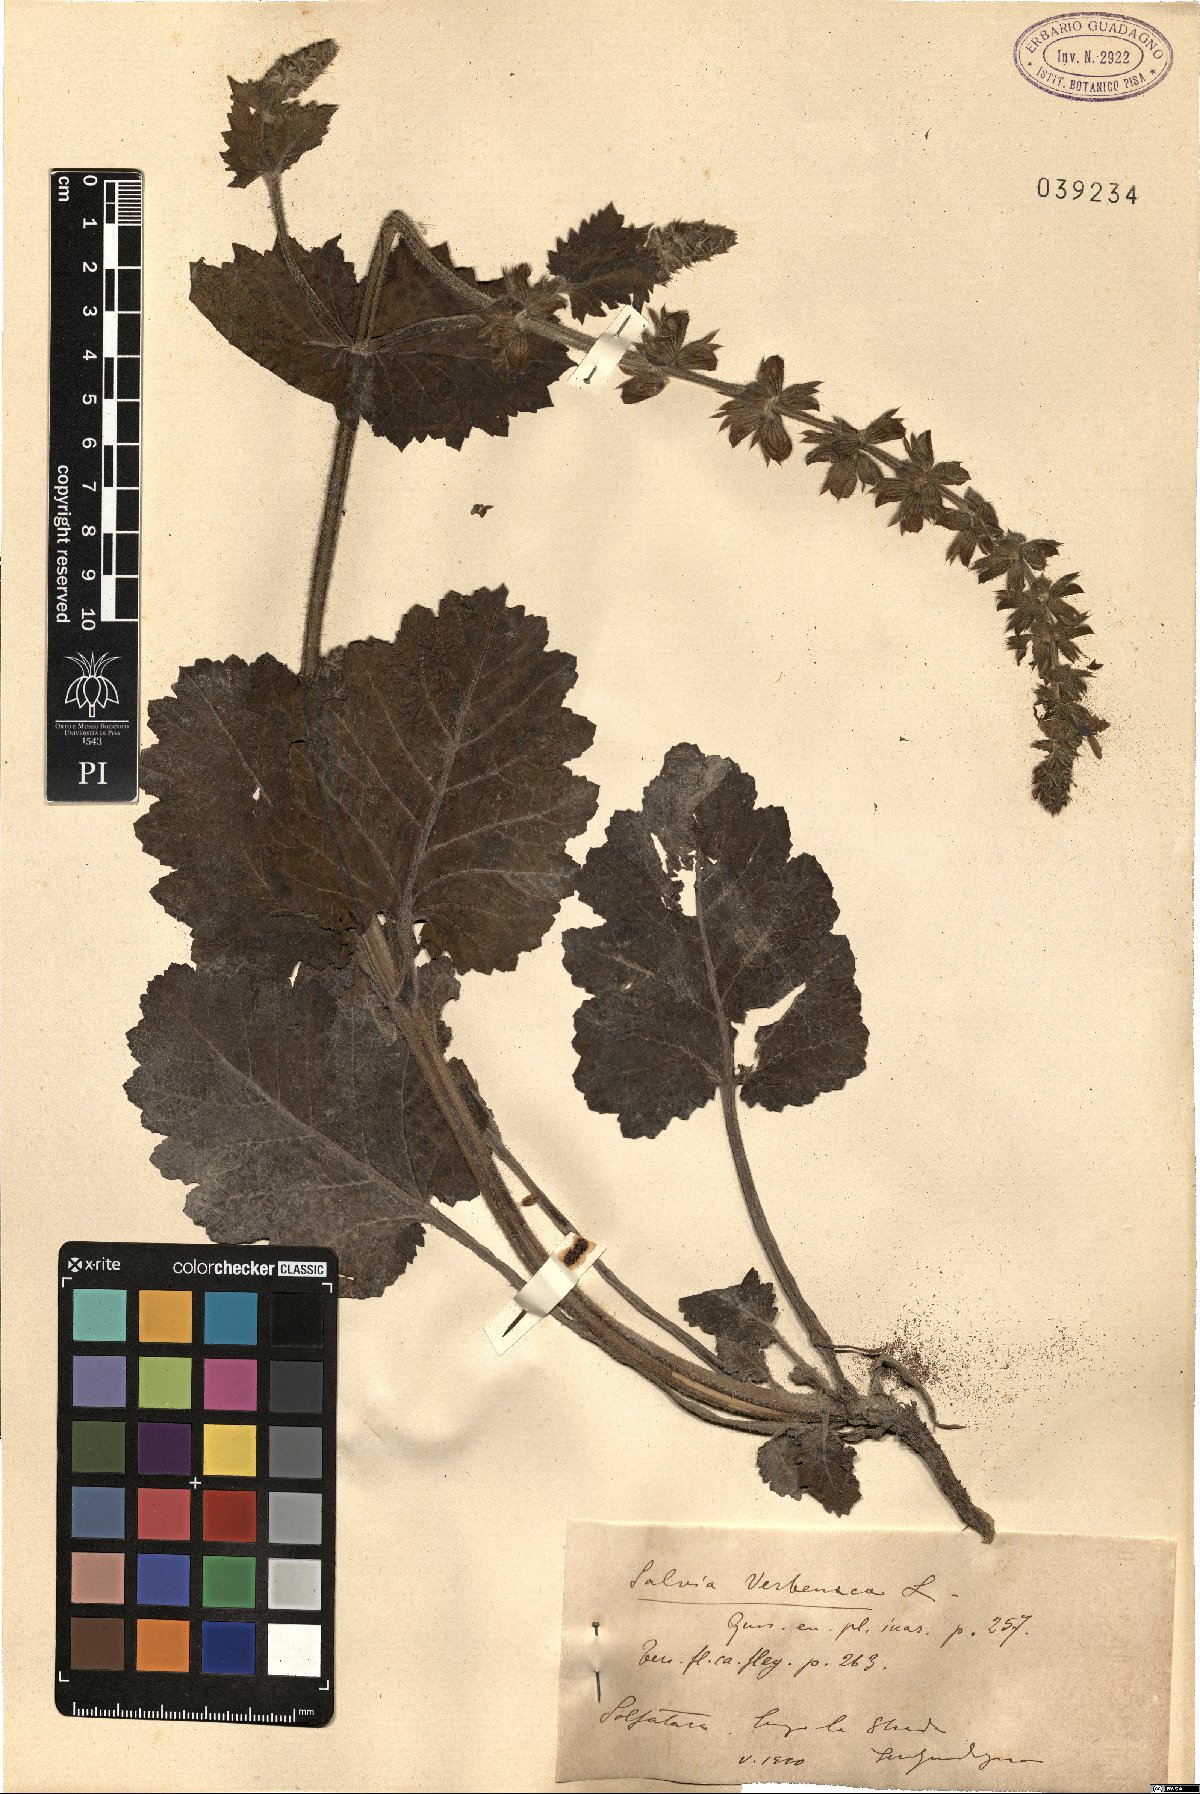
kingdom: Plantae
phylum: Tracheophyta
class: Magnoliopsida
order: Lamiales
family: Lamiaceae
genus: Salvia
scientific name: Salvia verbenaca
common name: Wild clary
